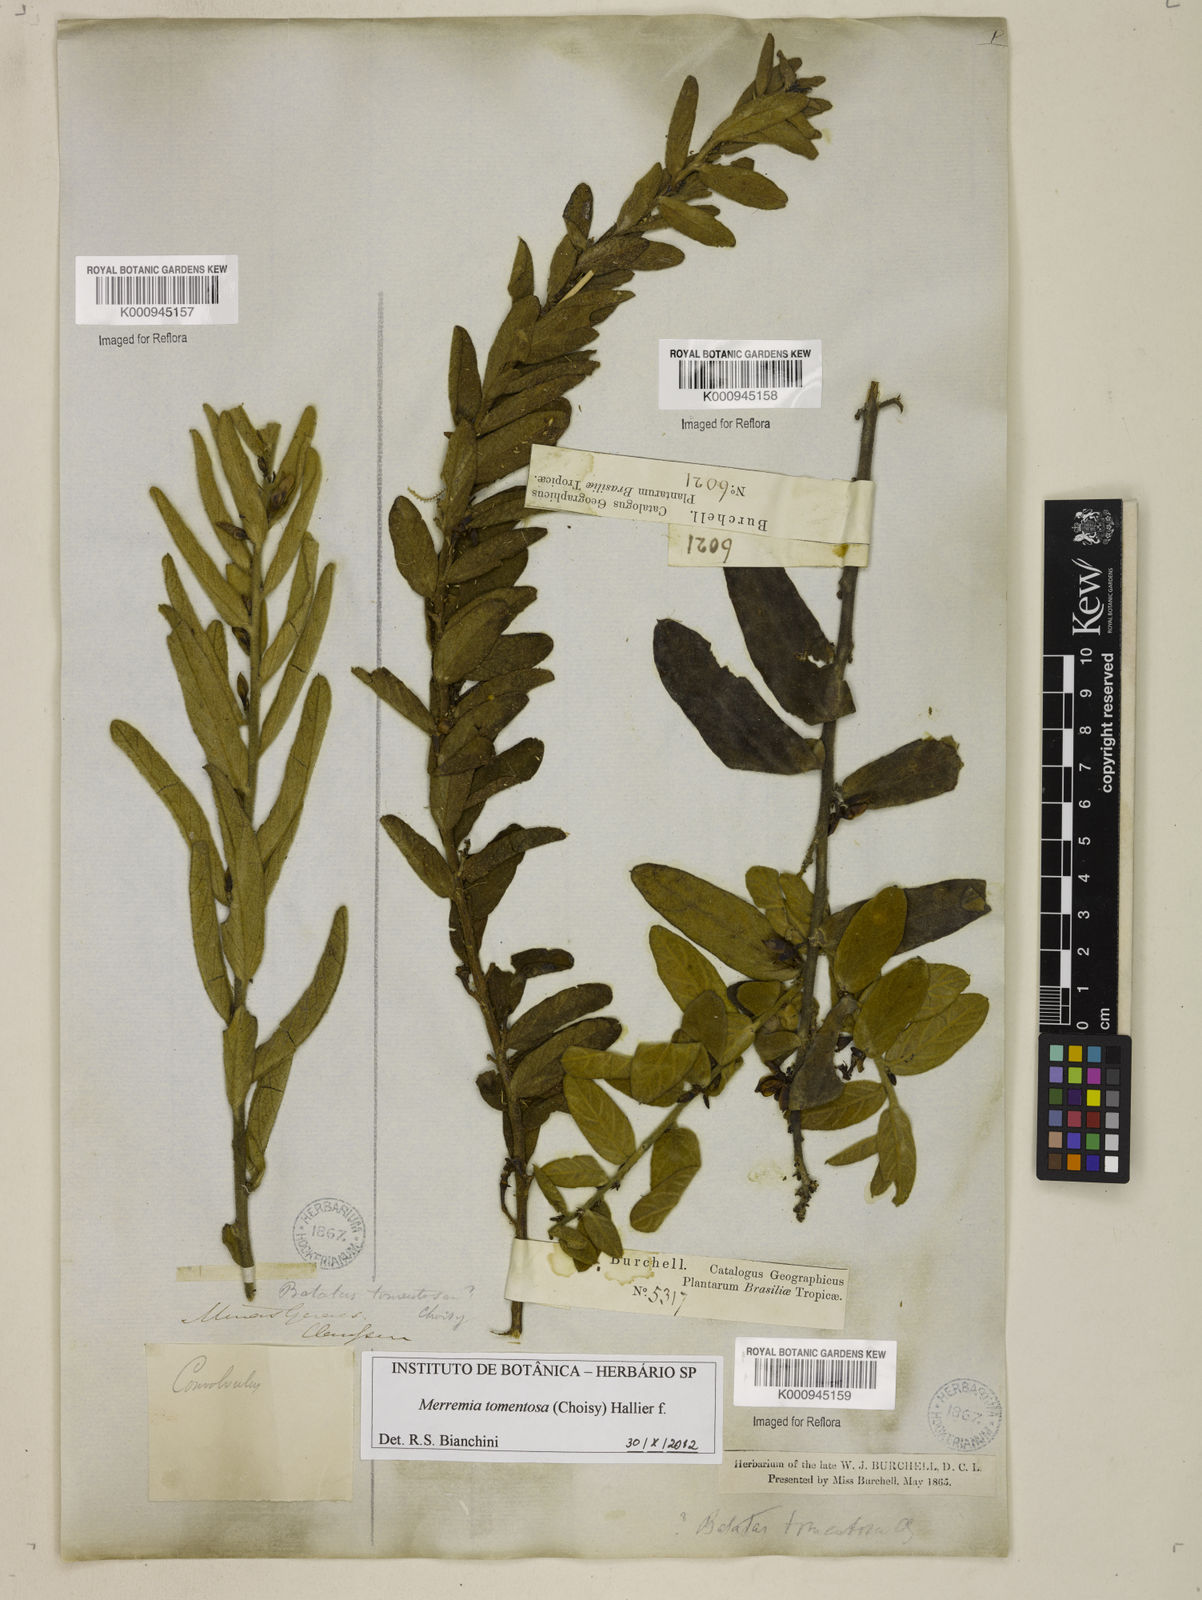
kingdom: Plantae
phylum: Tracheophyta
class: Magnoliopsida
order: Solanales
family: Convolvulaceae
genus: Distimake
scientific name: Distimake tomentosus
